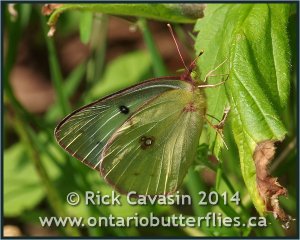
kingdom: Animalia
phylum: Arthropoda
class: Insecta
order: Lepidoptera
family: Pieridae
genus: Colias
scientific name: Colias philodice
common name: Clouded Sulphur
